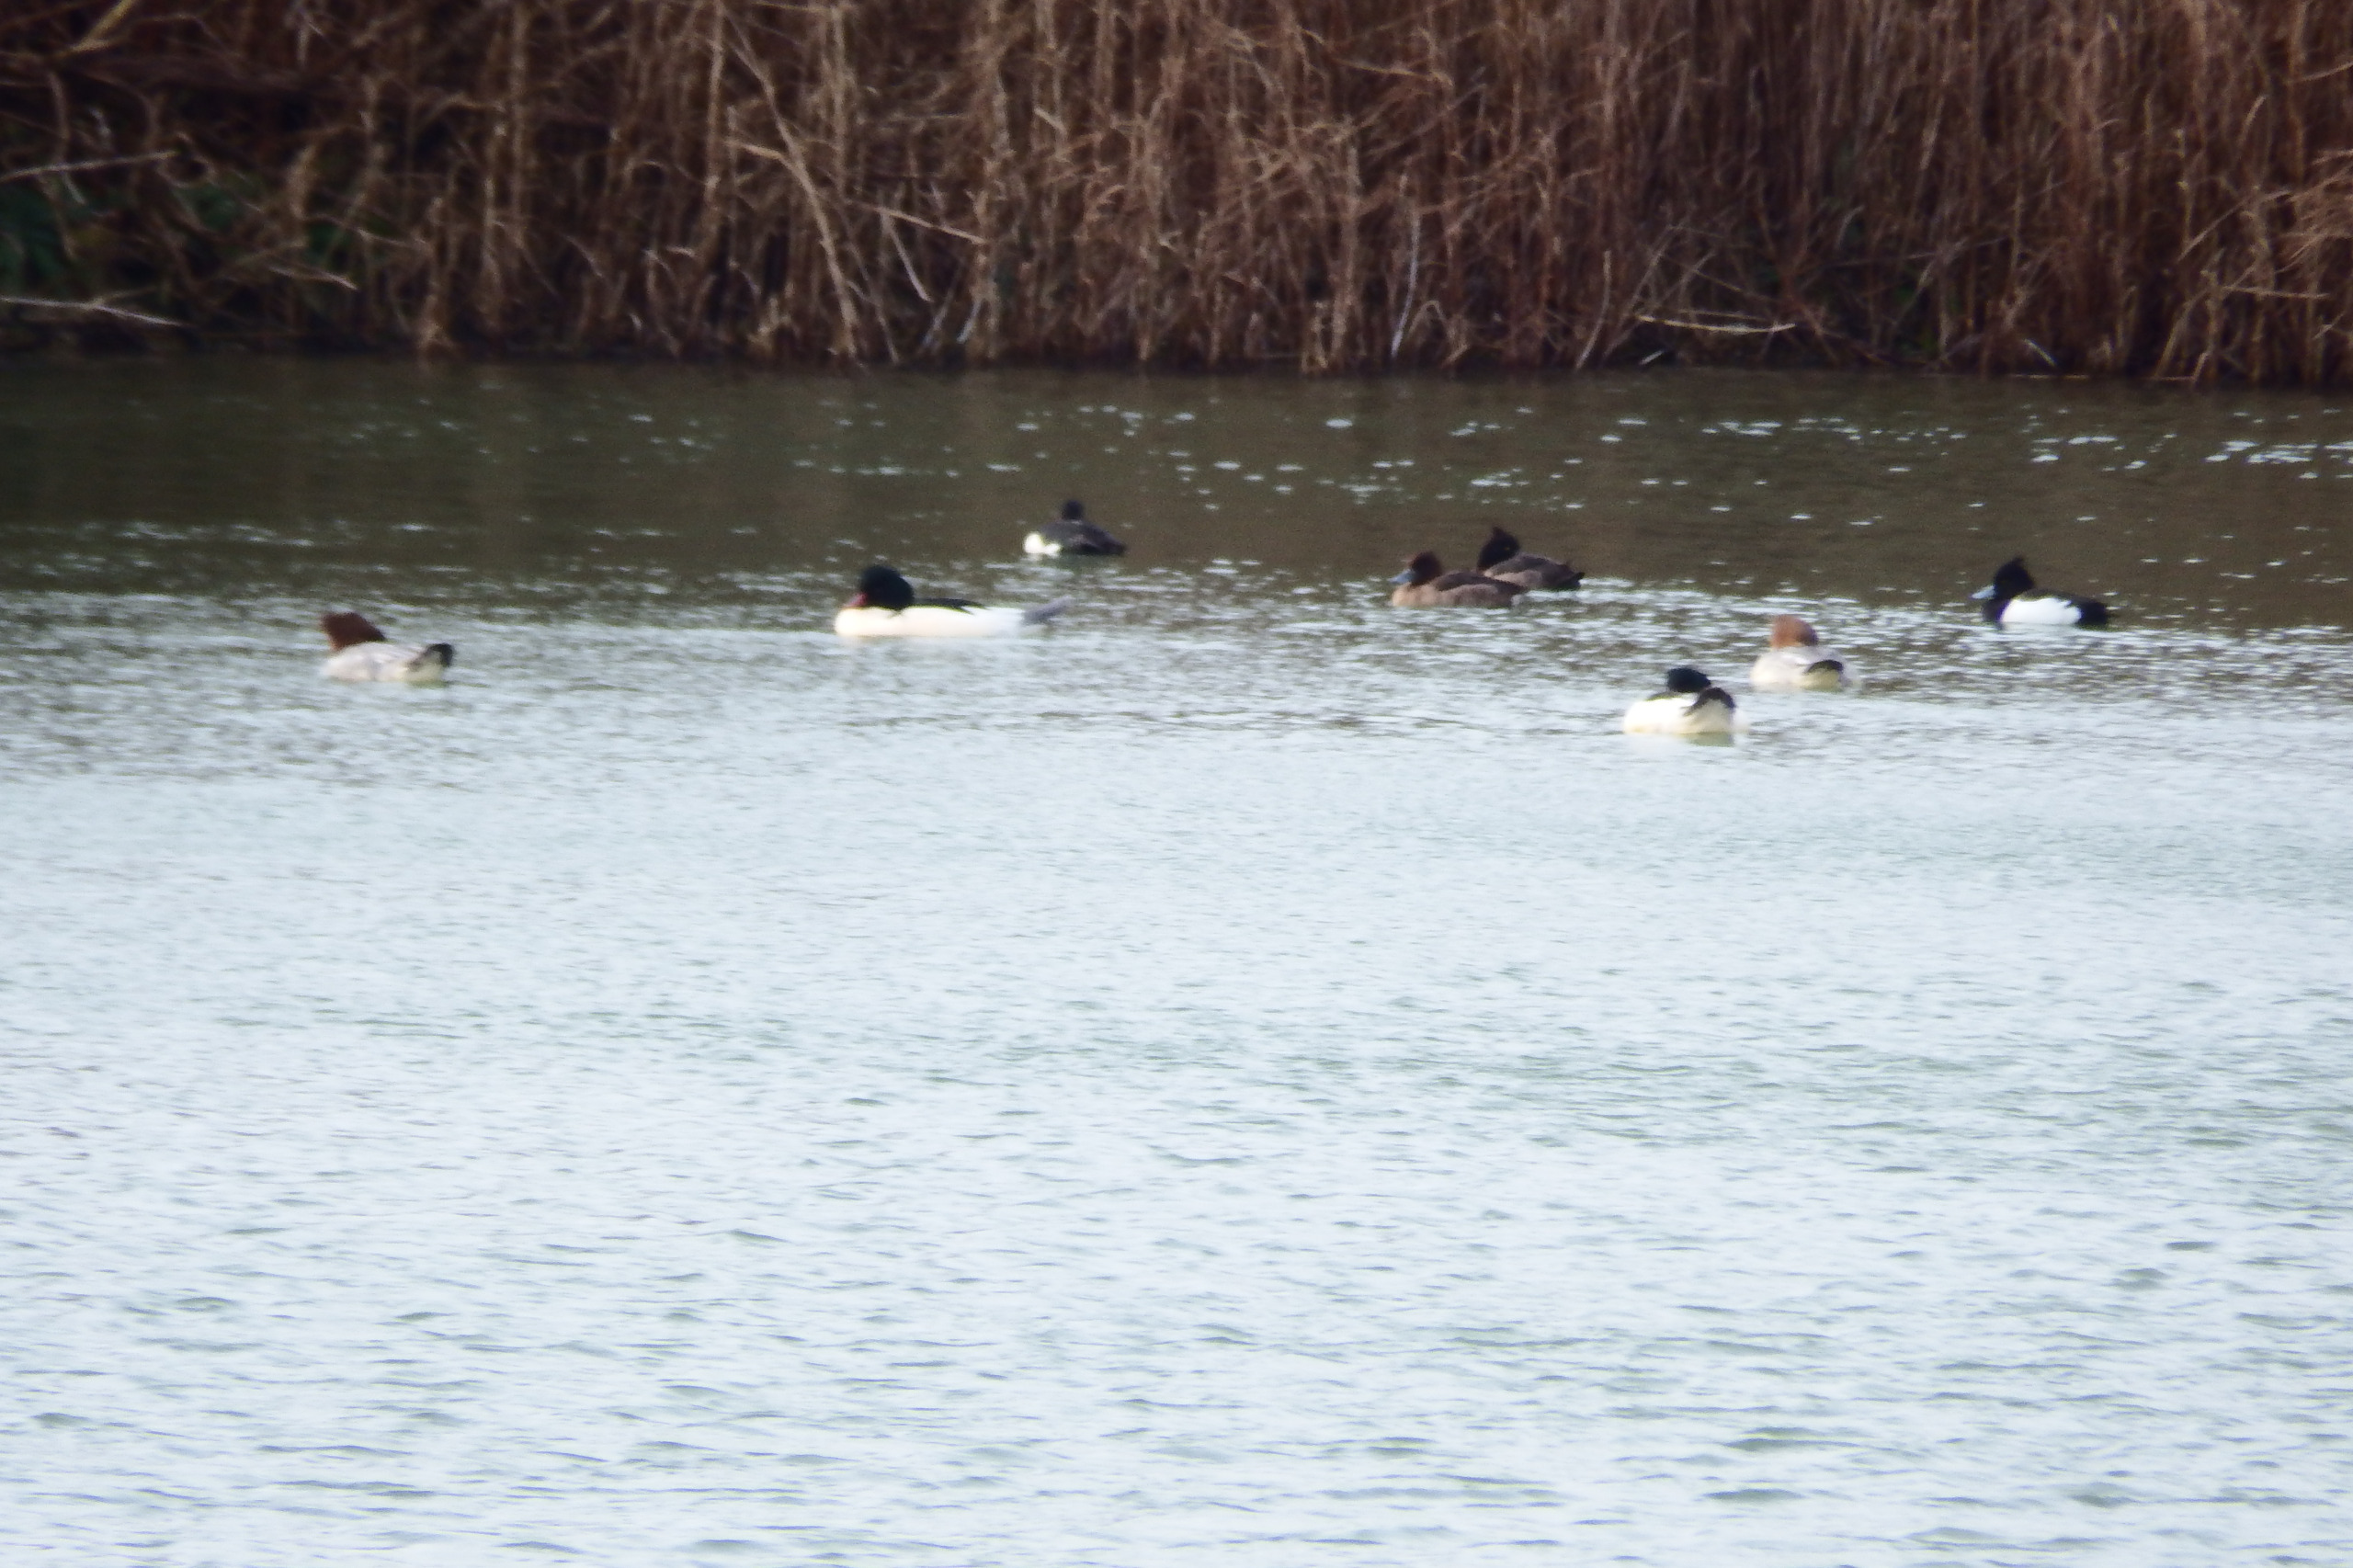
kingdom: Animalia
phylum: Chordata
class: Aves
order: Anseriformes
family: Anatidae
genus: Mergus
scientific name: Mergus merganser
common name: Stor skallesluger
